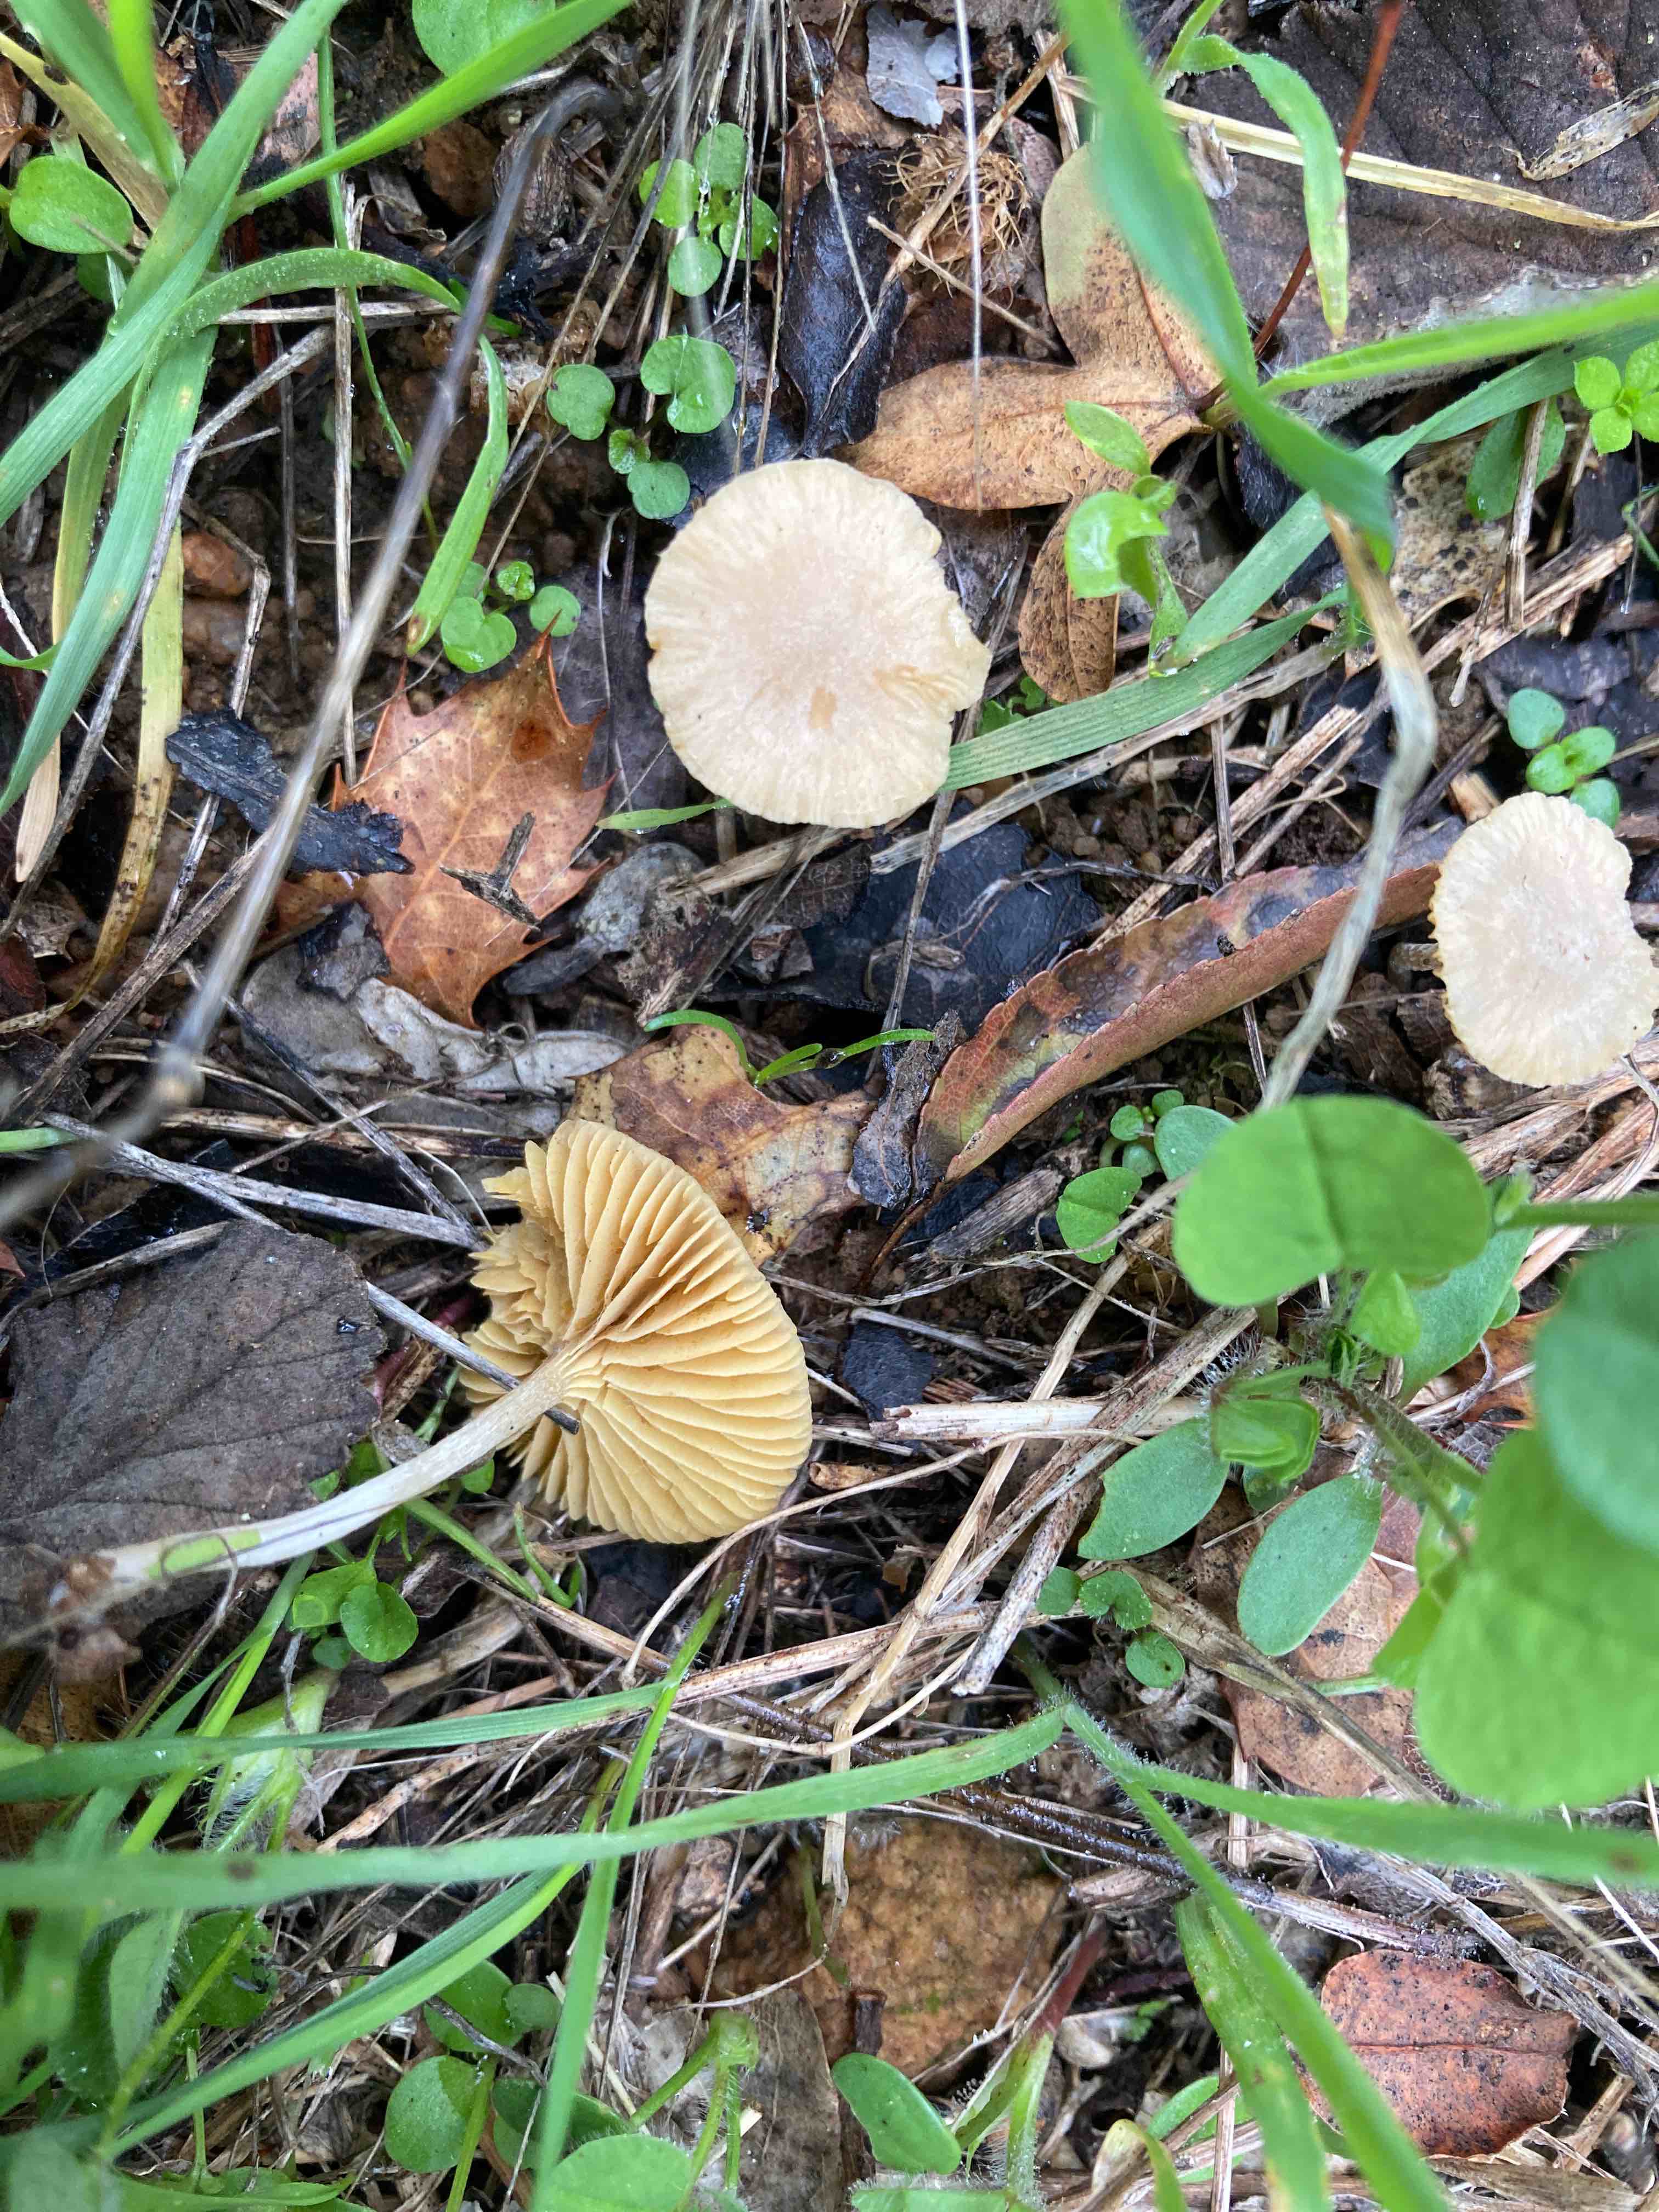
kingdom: Fungi
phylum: Basidiomycota
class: Agaricomycetes
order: Agaricales
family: Tubariaceae
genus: Tubaria
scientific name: Tubaria dispersa
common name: tjørne-fnughat
